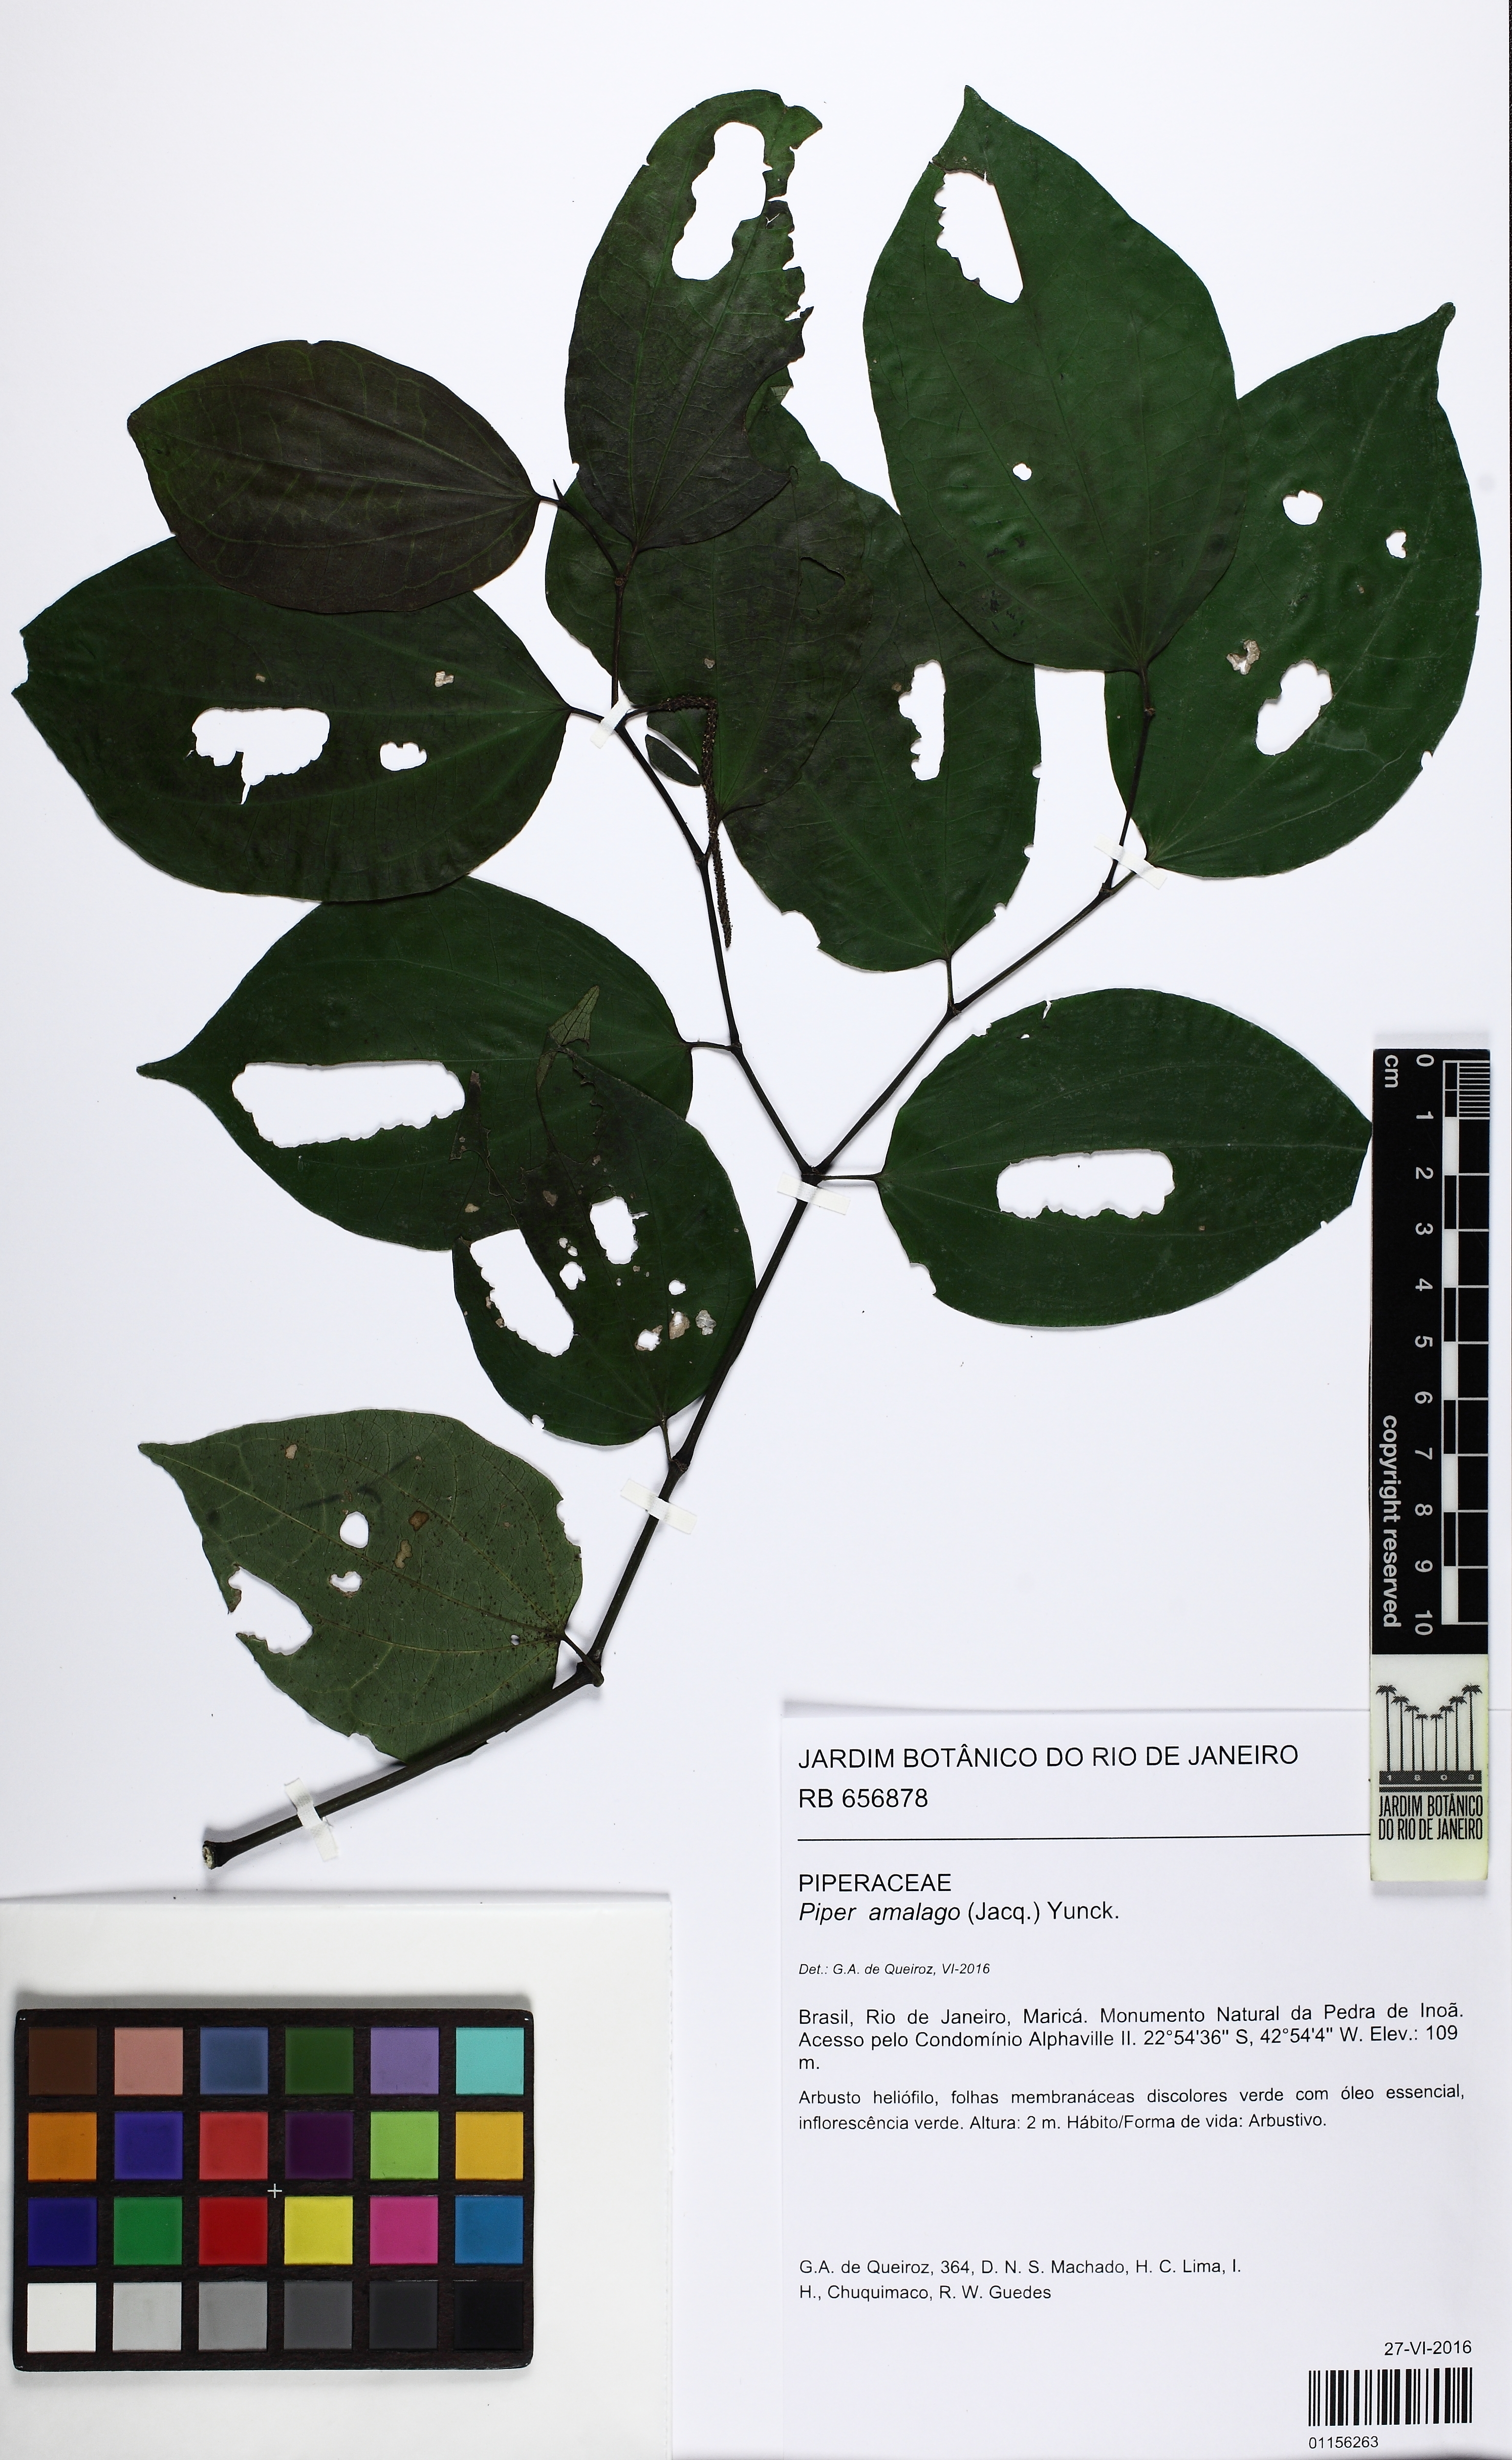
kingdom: Plantae
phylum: Tracheophyta
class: Magnoliopsida
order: Piperales
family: Piperaceae
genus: Piper
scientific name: Piper amalago
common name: Pepper-elder
